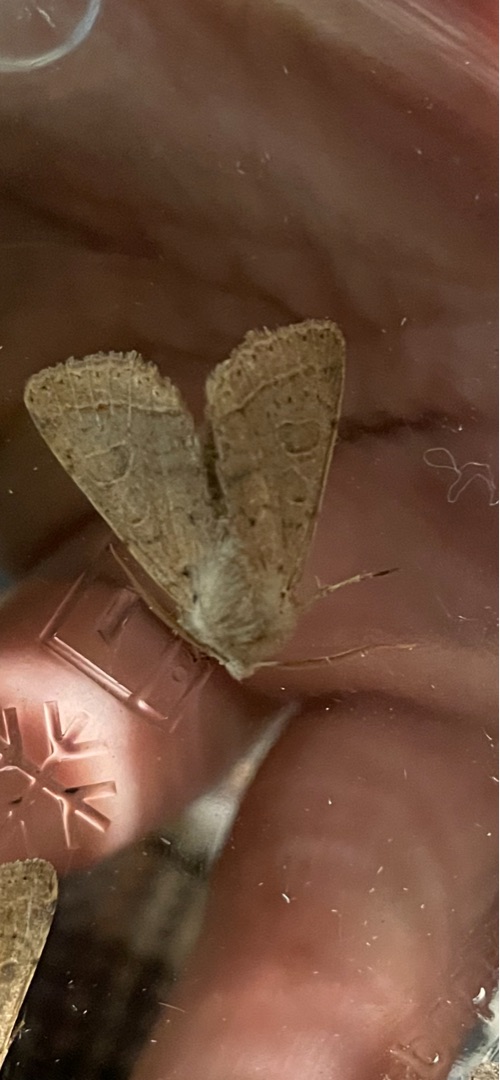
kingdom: Animalia
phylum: Arthropoda
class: Insecta
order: Lepidoptera
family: Noctuidae
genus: Orthosia
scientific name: Orthosia cerasi
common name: Rødgul forårsugle
